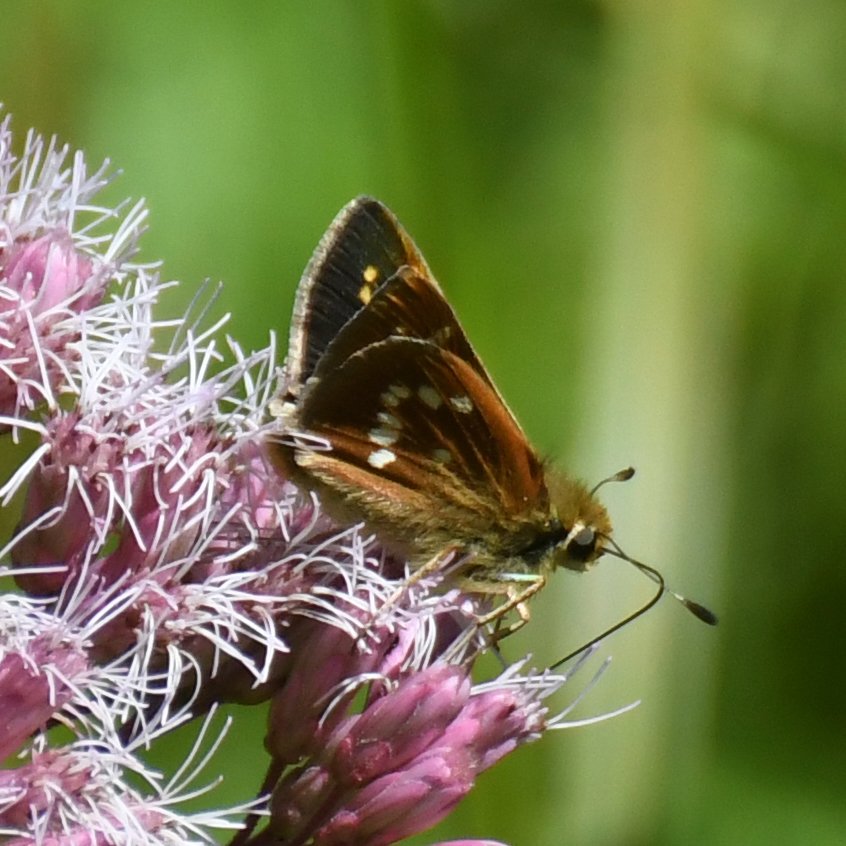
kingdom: Animalia
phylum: Arthropoda
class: Insecta
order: Lepidoptera
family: Hesperiidae
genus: Hesperia
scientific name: Hesperia leonardus
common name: Leonard's Skipper
